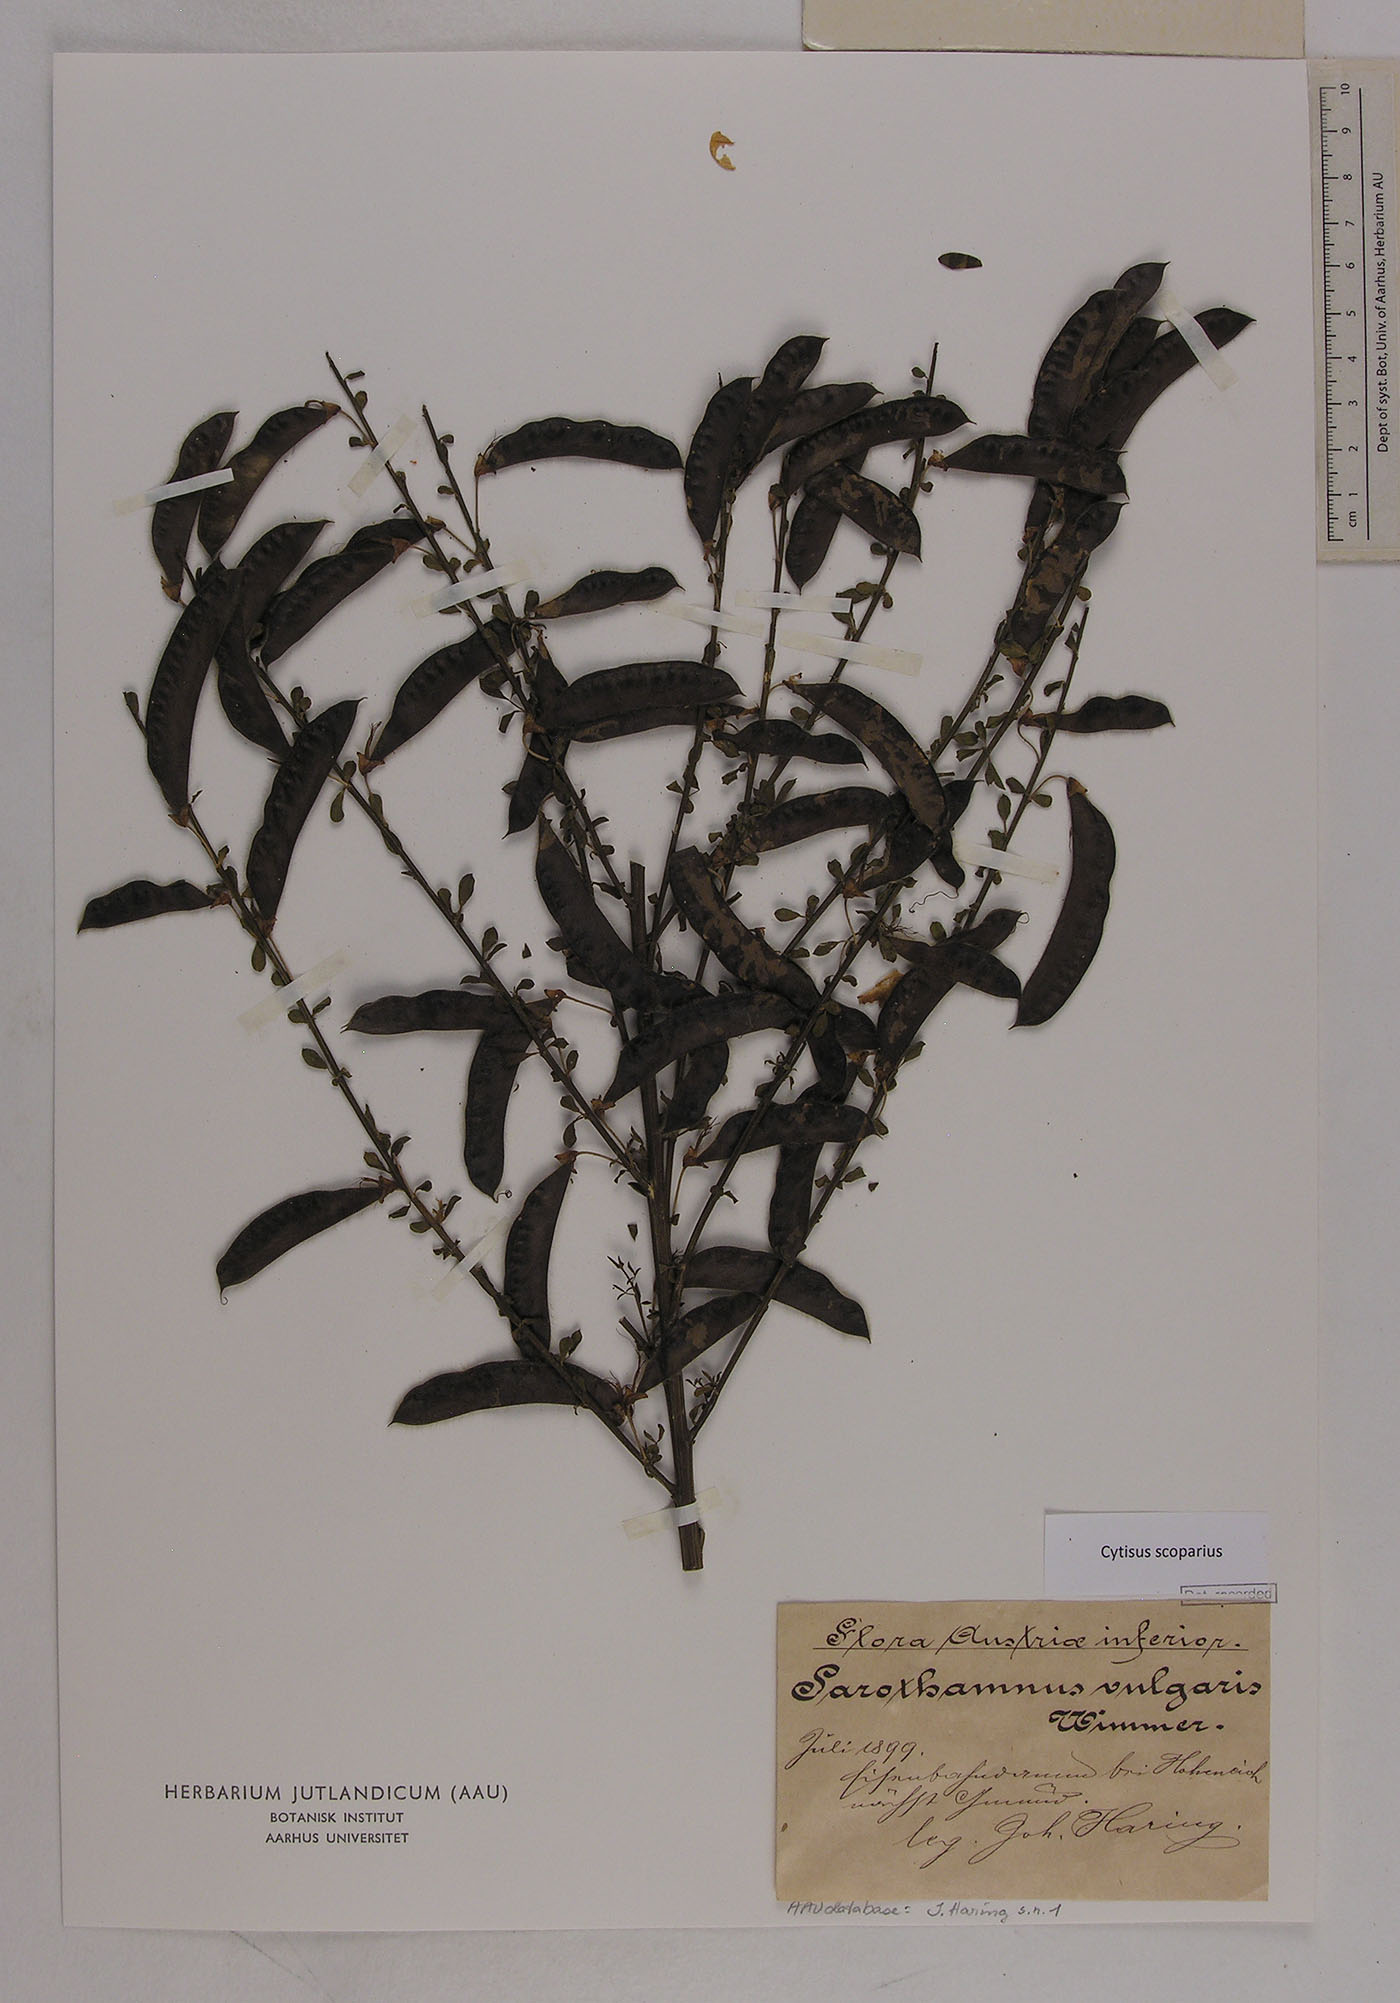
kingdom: Plantae
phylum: Tracheophyta
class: Magnoliopsida
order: Fabales
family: Fabaceae
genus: Cytisus
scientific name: Cytisus scoparius
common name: Scotch broom
